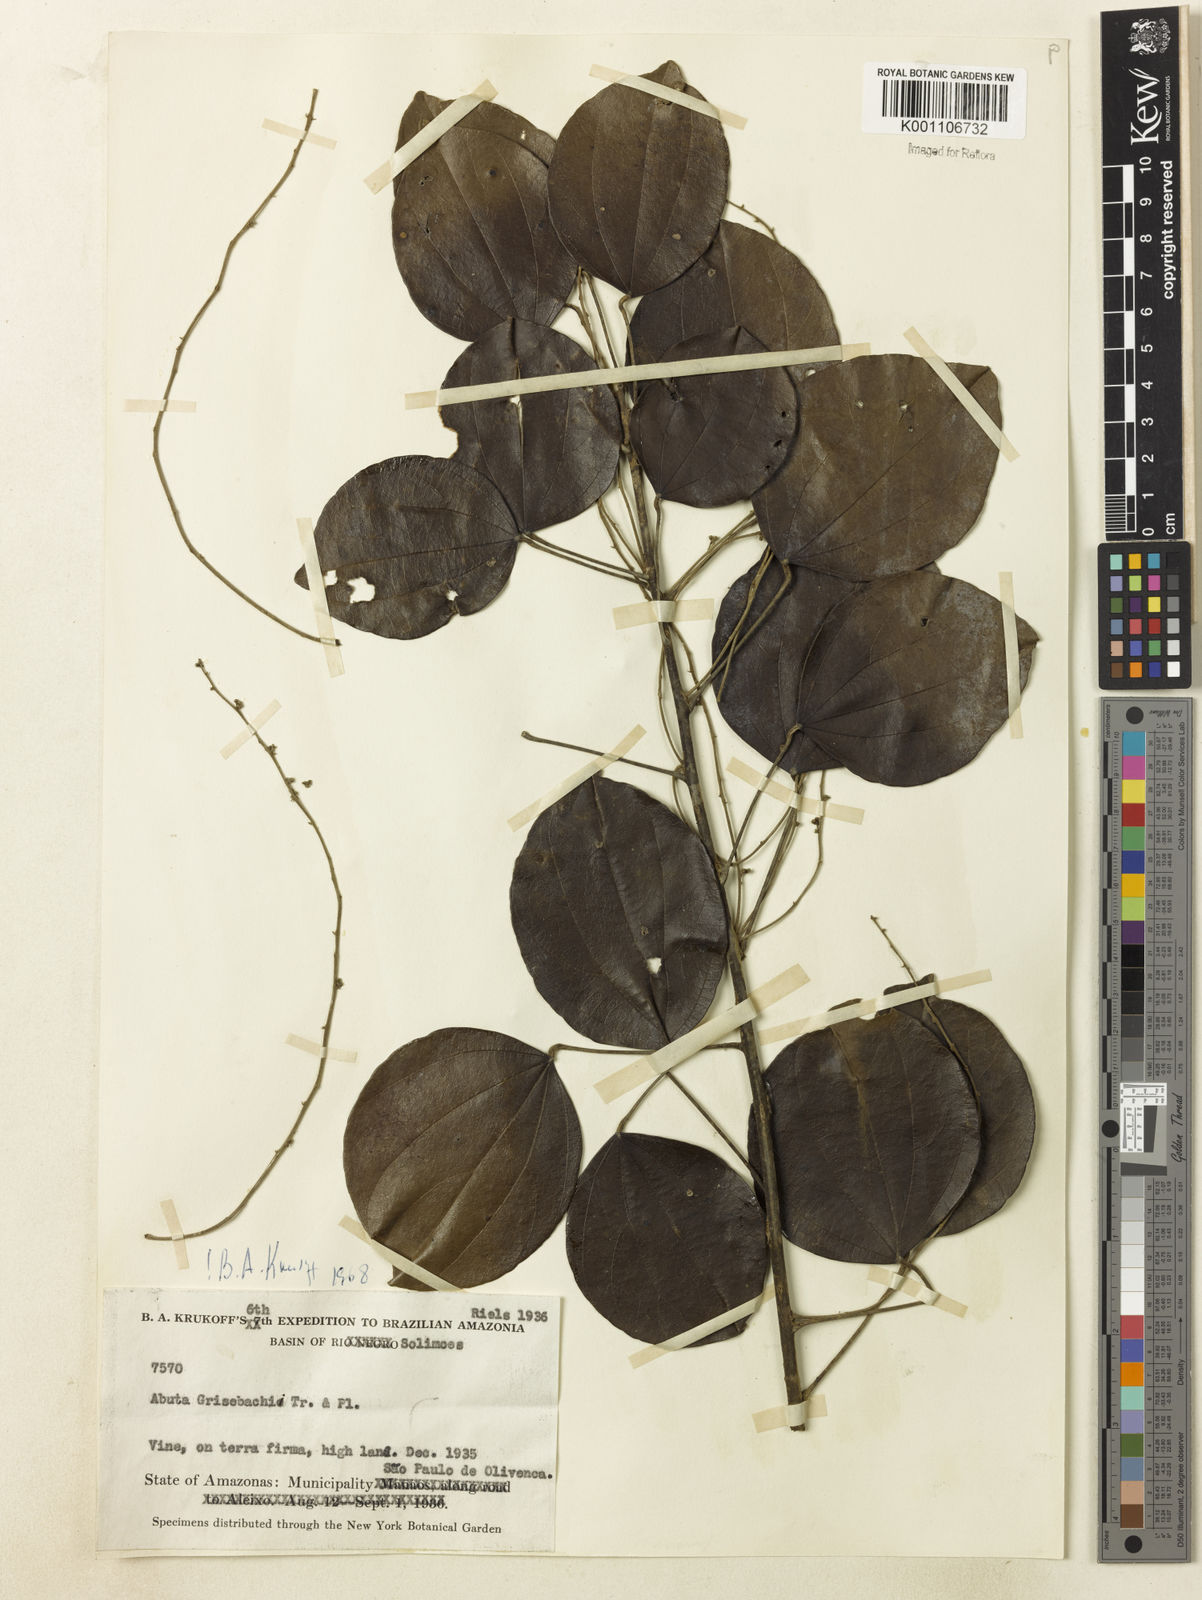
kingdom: Plantae
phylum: Tracheophyta
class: Magnoliopsida
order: Ranunculales
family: Menispermaceae
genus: Abuta
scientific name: Abuta grisebachii
